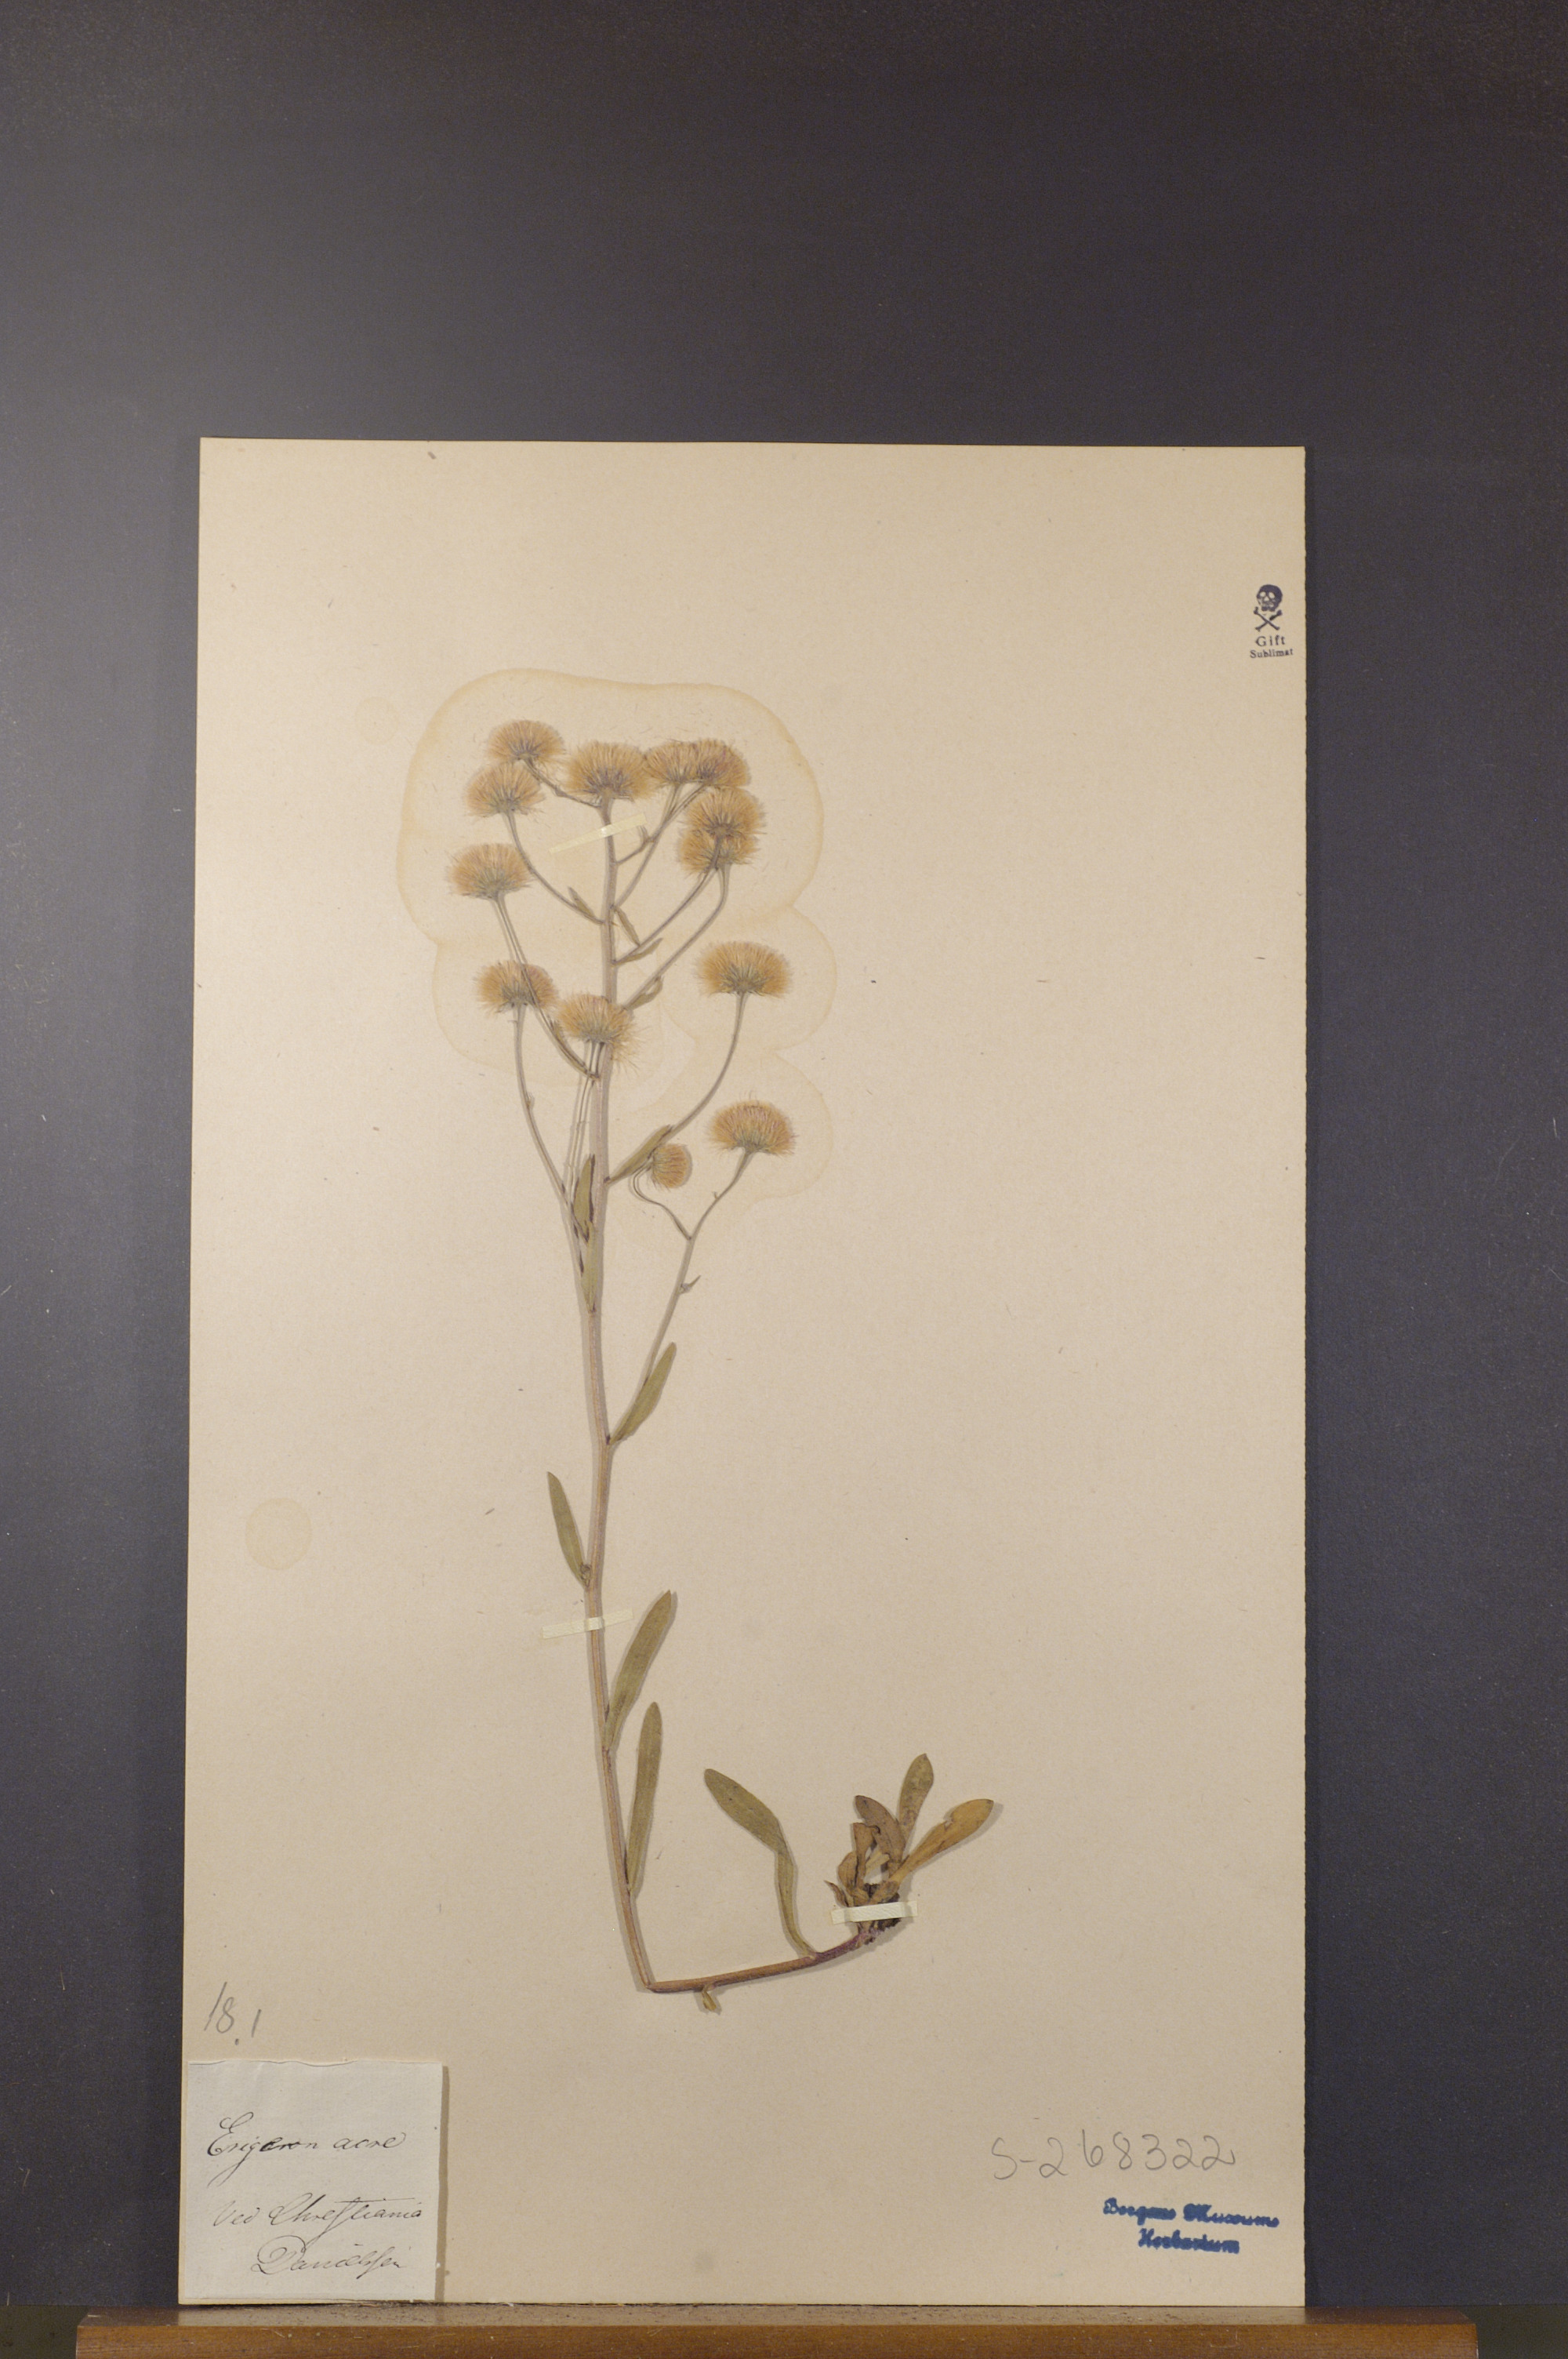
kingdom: Plantae
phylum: Tracheophyta
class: Magnoliopsida
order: Asterales
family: Asteraceae
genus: Erigeron
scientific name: Erigeron acris
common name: Blue fleabane
